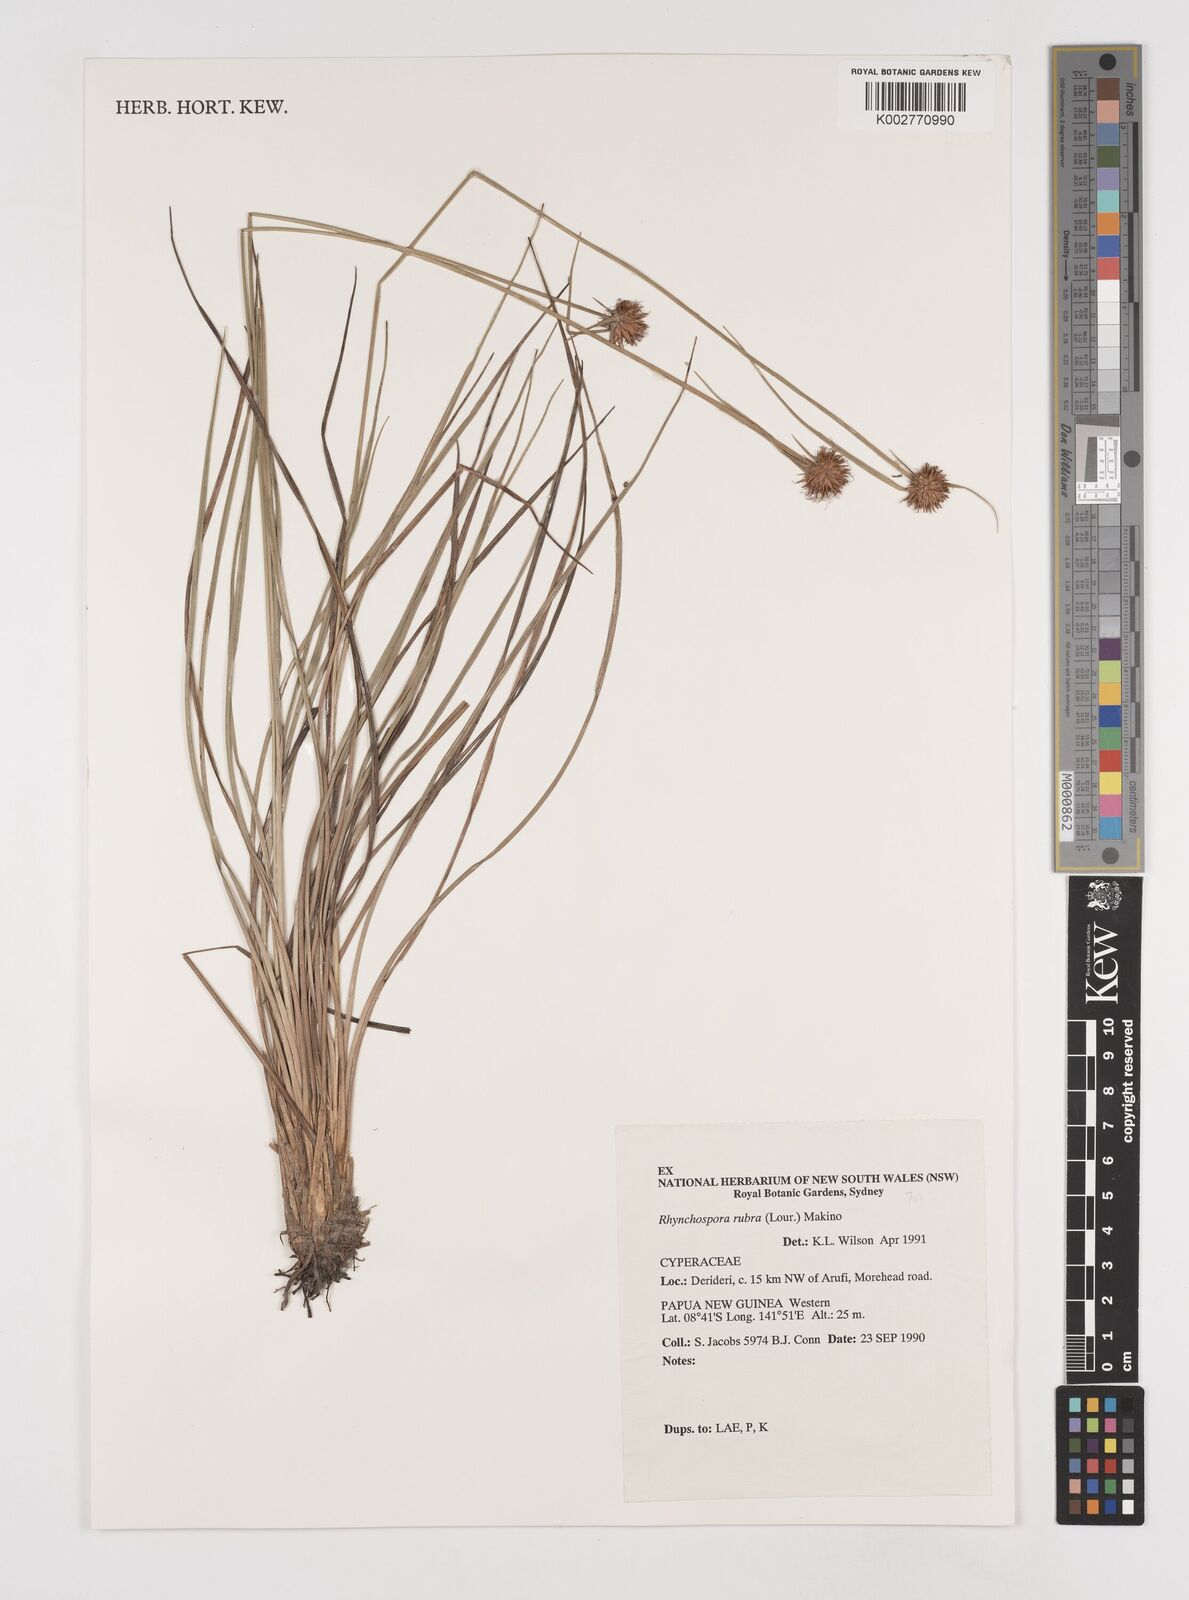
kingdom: Plantae
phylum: Tracheophyta
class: Liliopsida
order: Poales
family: Cyperaceae
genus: Rhynchospora
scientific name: Rhynchospora rubra
